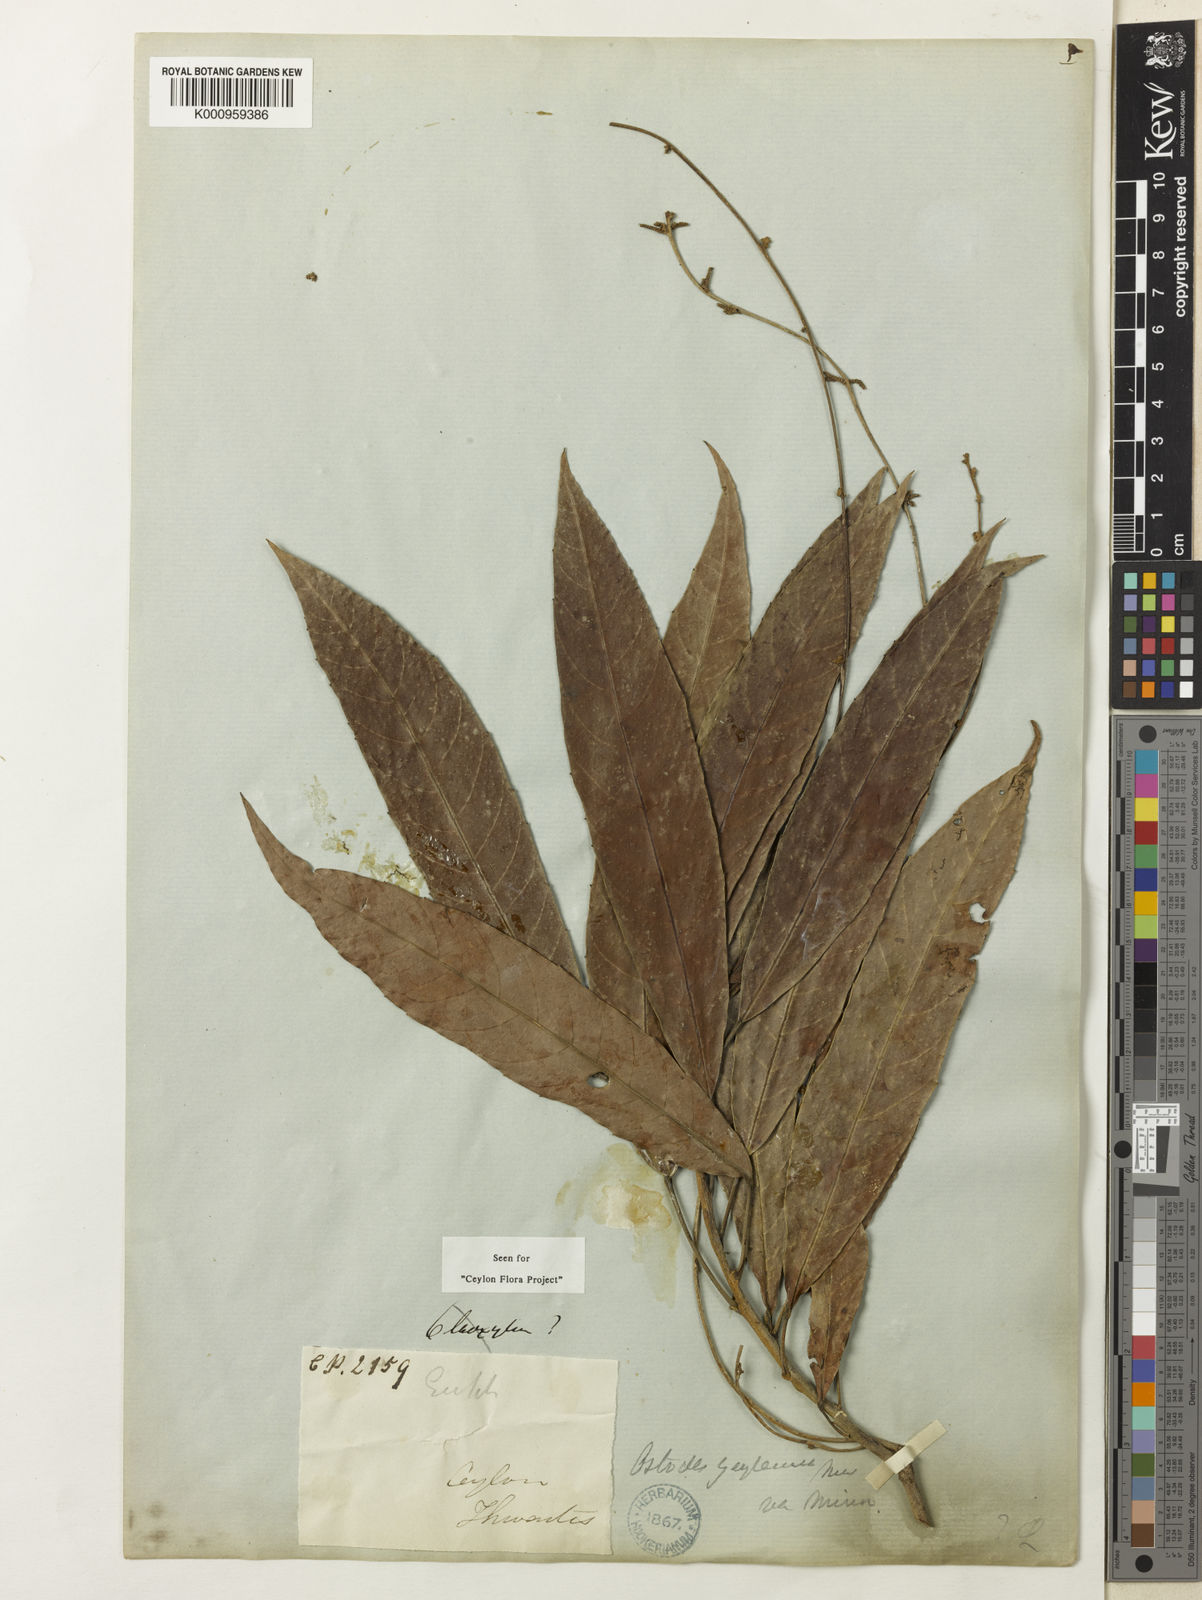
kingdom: Plantae
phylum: Tracheophyta
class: Magnoliopsida
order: Malpighiales
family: Euphorbiaceae
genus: Paracroton
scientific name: Paracroton
